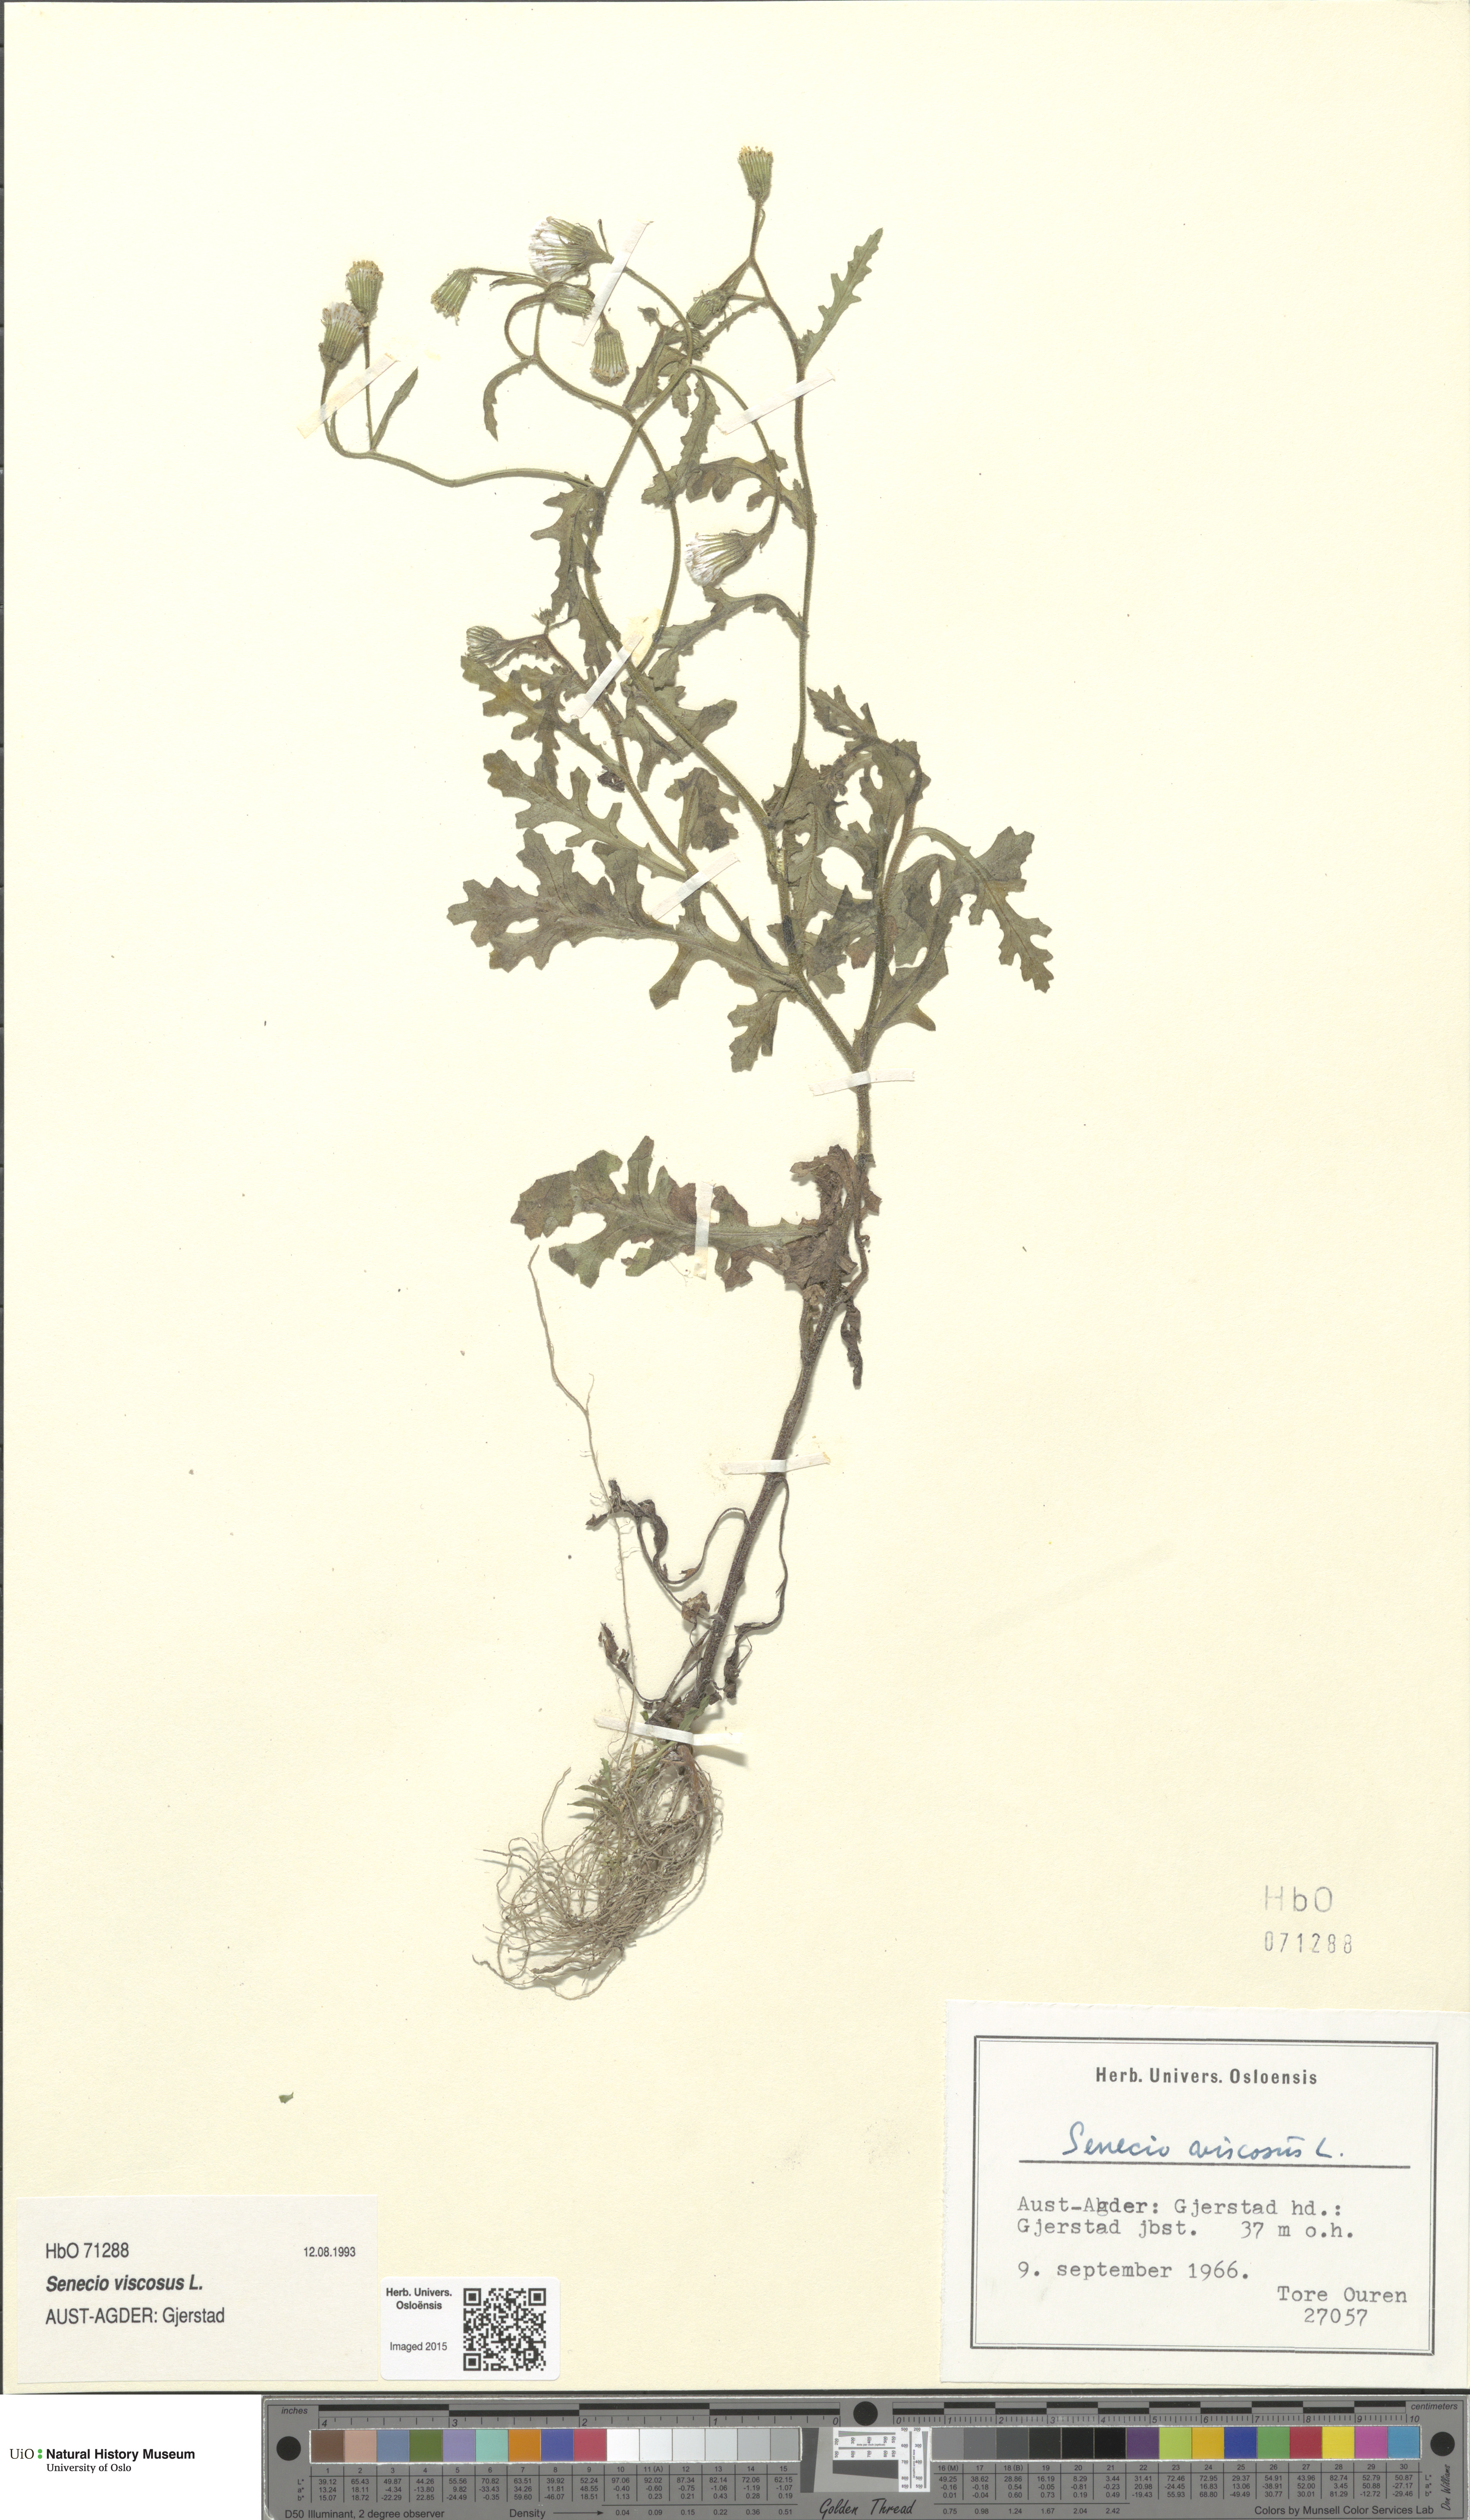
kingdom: Plantae
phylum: Tracheophyta
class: Magnoliopsida
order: Asterales
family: Asteraceae
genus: Senecio
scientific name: Senecio viscosus
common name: Sticky groundsel
